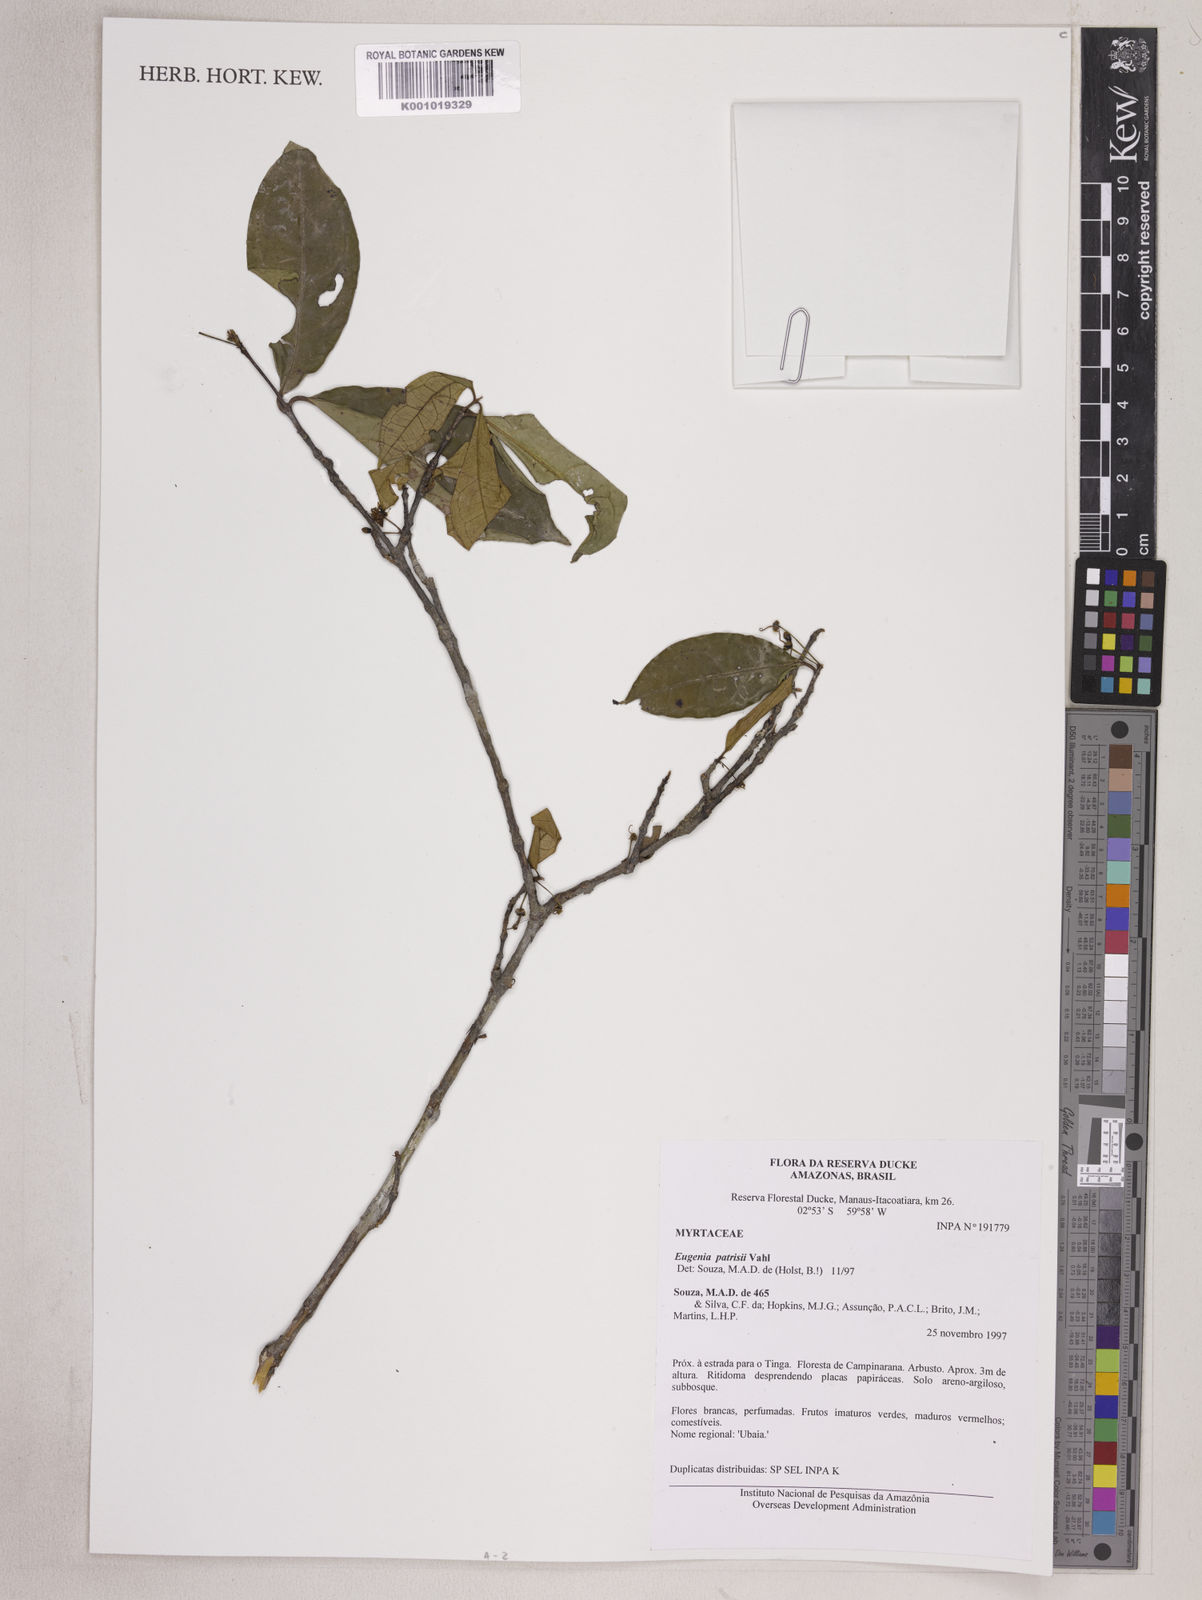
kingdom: Plantae
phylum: Tracheophyta
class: Magnoliopsida
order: Myrtales
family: Myrtaceae
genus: Eugenia
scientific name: Eugenia patrisii
